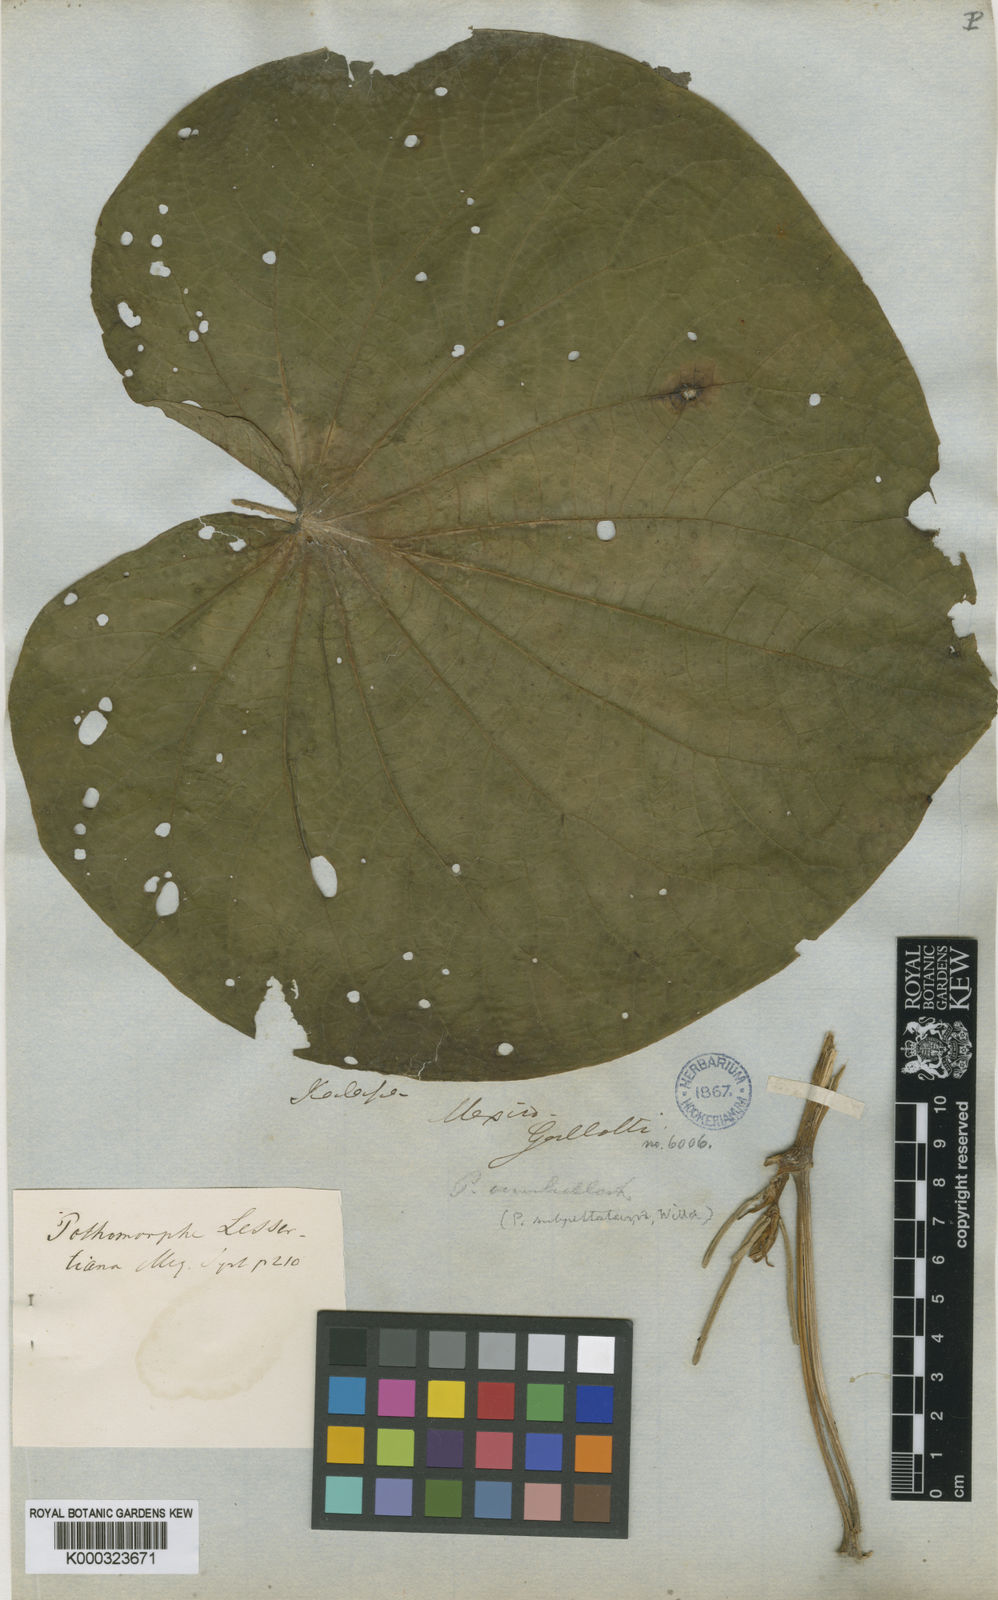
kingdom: Plantae
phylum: Tracheophyta
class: Magnoliopsida
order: Piperales
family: Piperaceae
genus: Piper
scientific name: Piper
